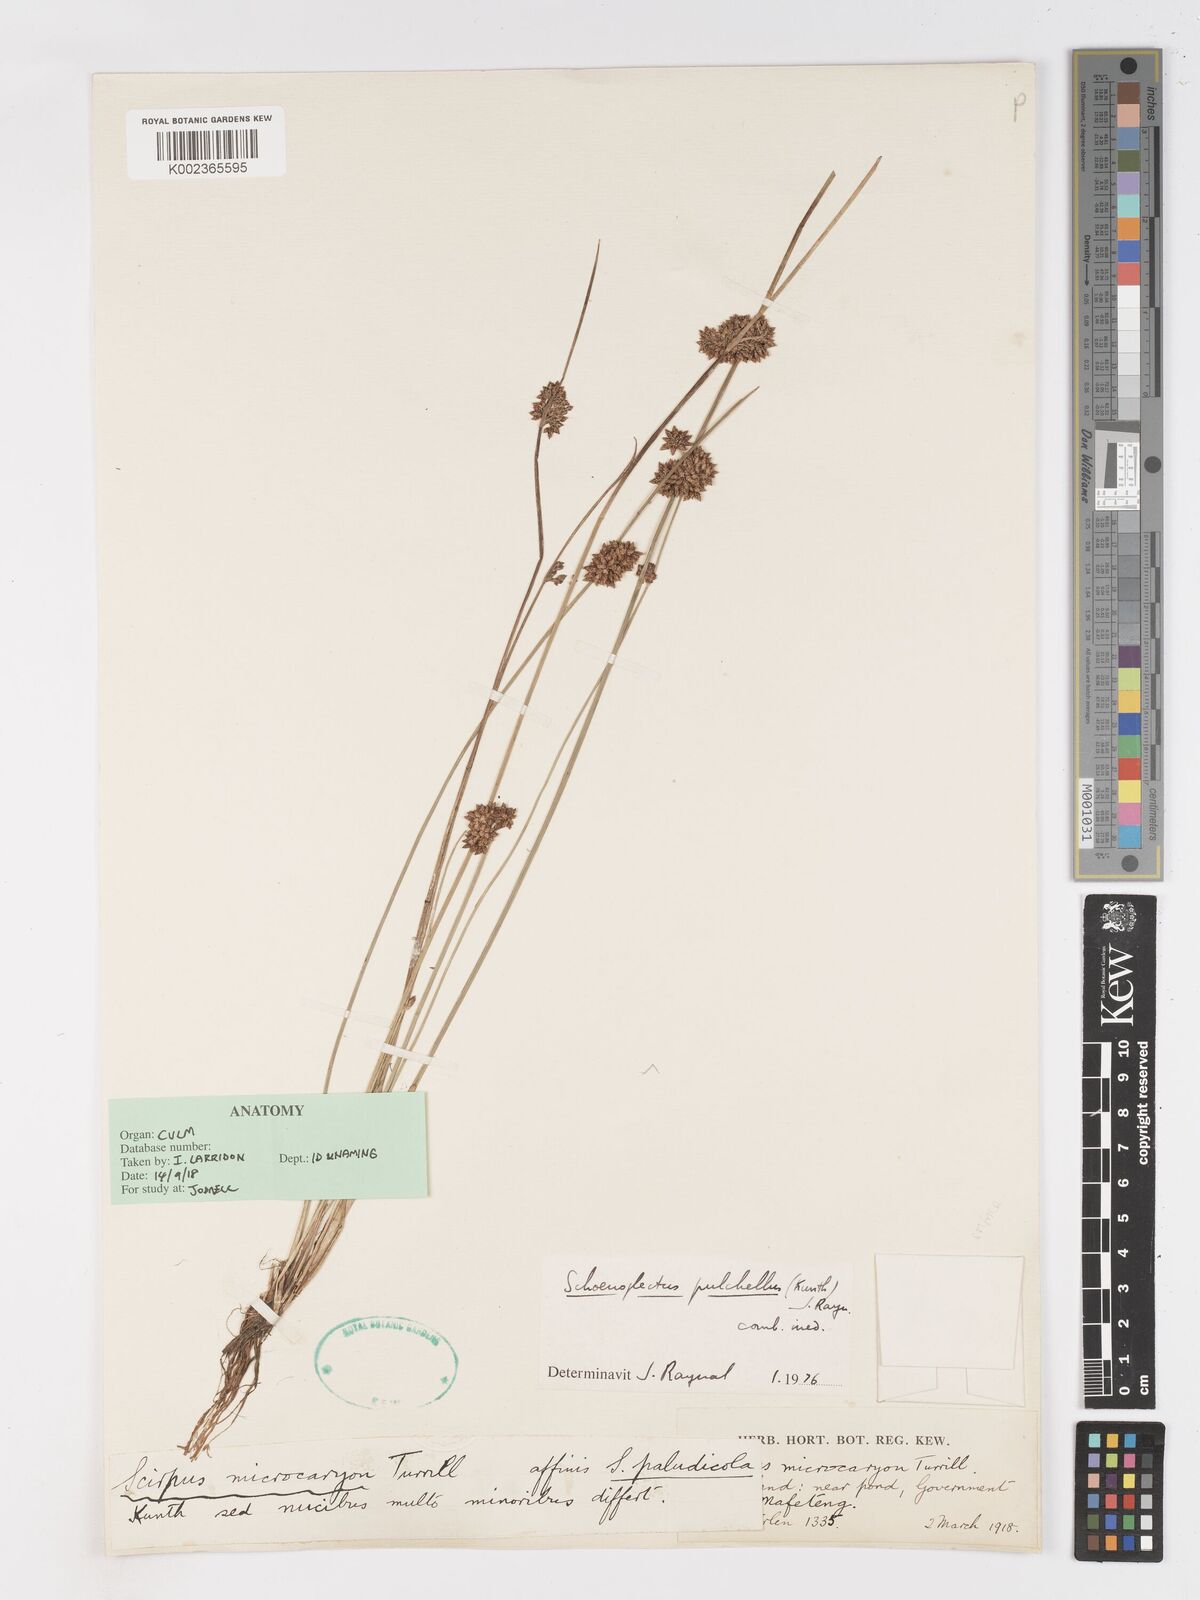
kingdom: Plantae
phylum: Tracheophyta
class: Liliopsida
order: Poales
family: Cyperaceae
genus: Schoenoplectiella
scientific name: Schoenoplectiella pulchella
